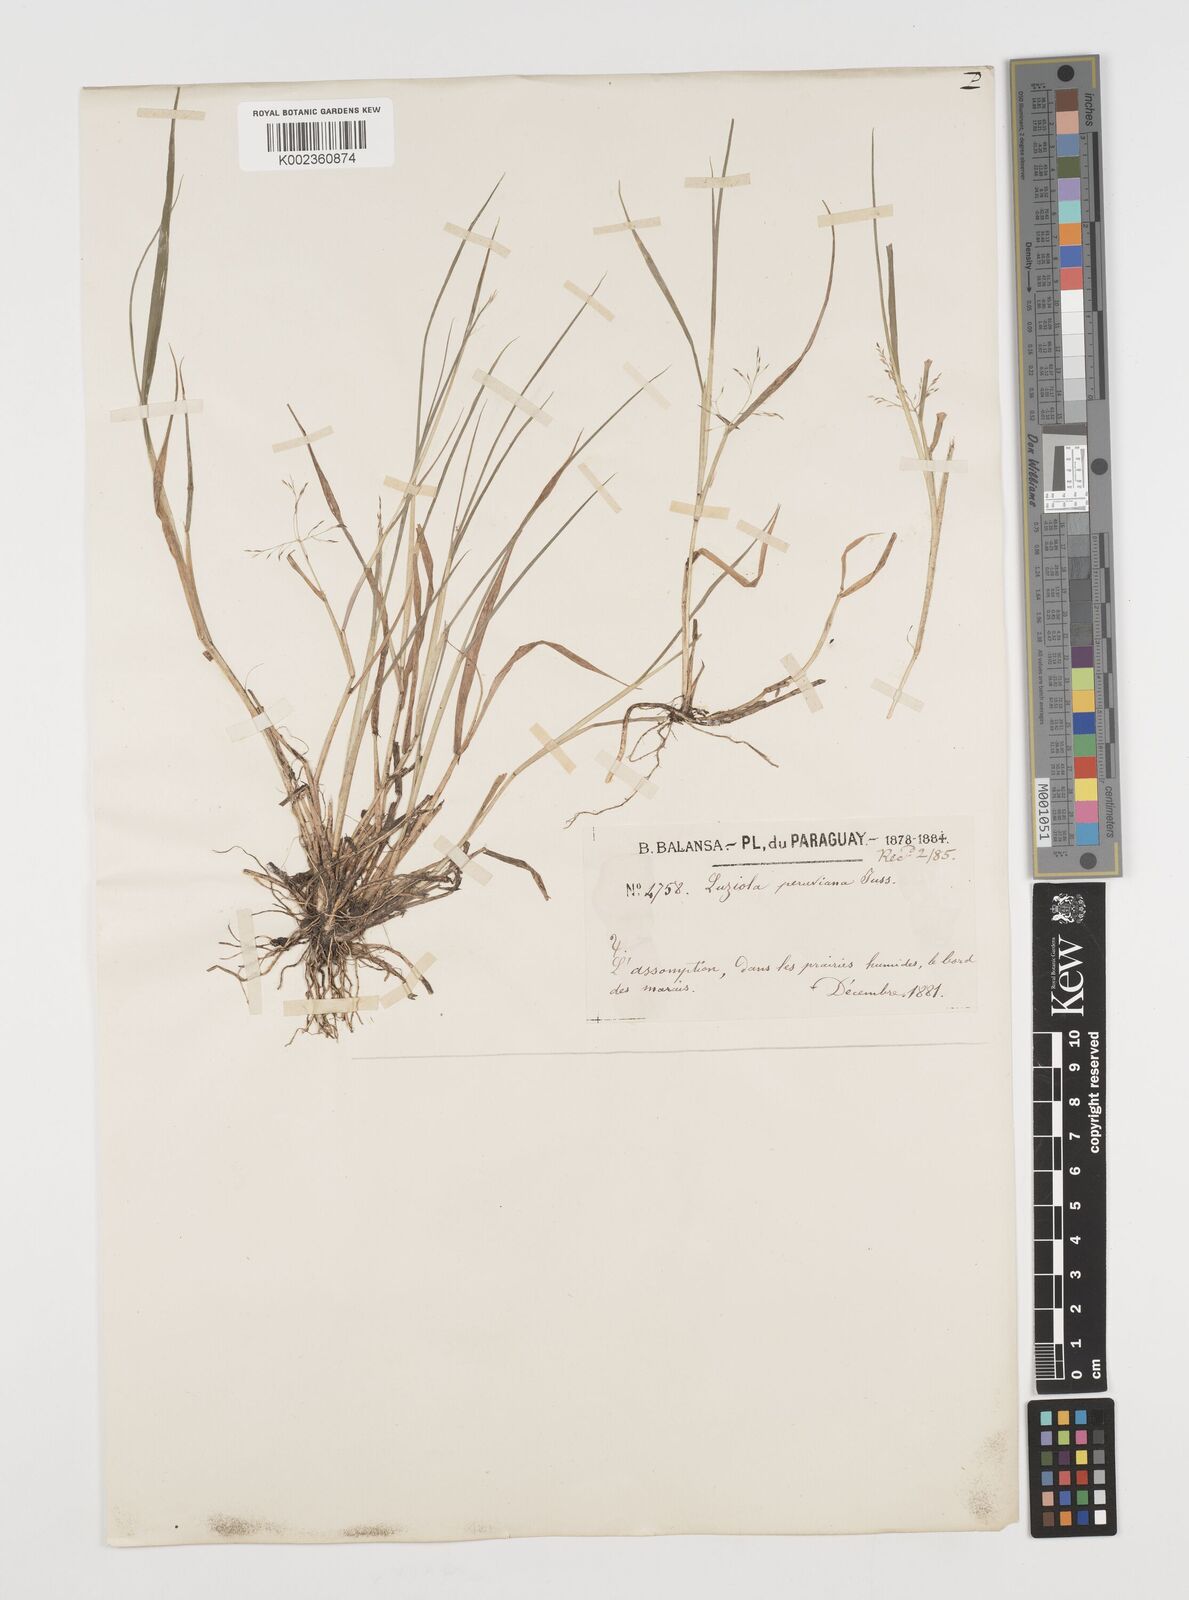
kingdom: Plantae
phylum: Tracheophyta
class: Liliopsida
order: Poales
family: Poaceae
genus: Luziola
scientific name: Luziola peruviana
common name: Peruvian watergrass
